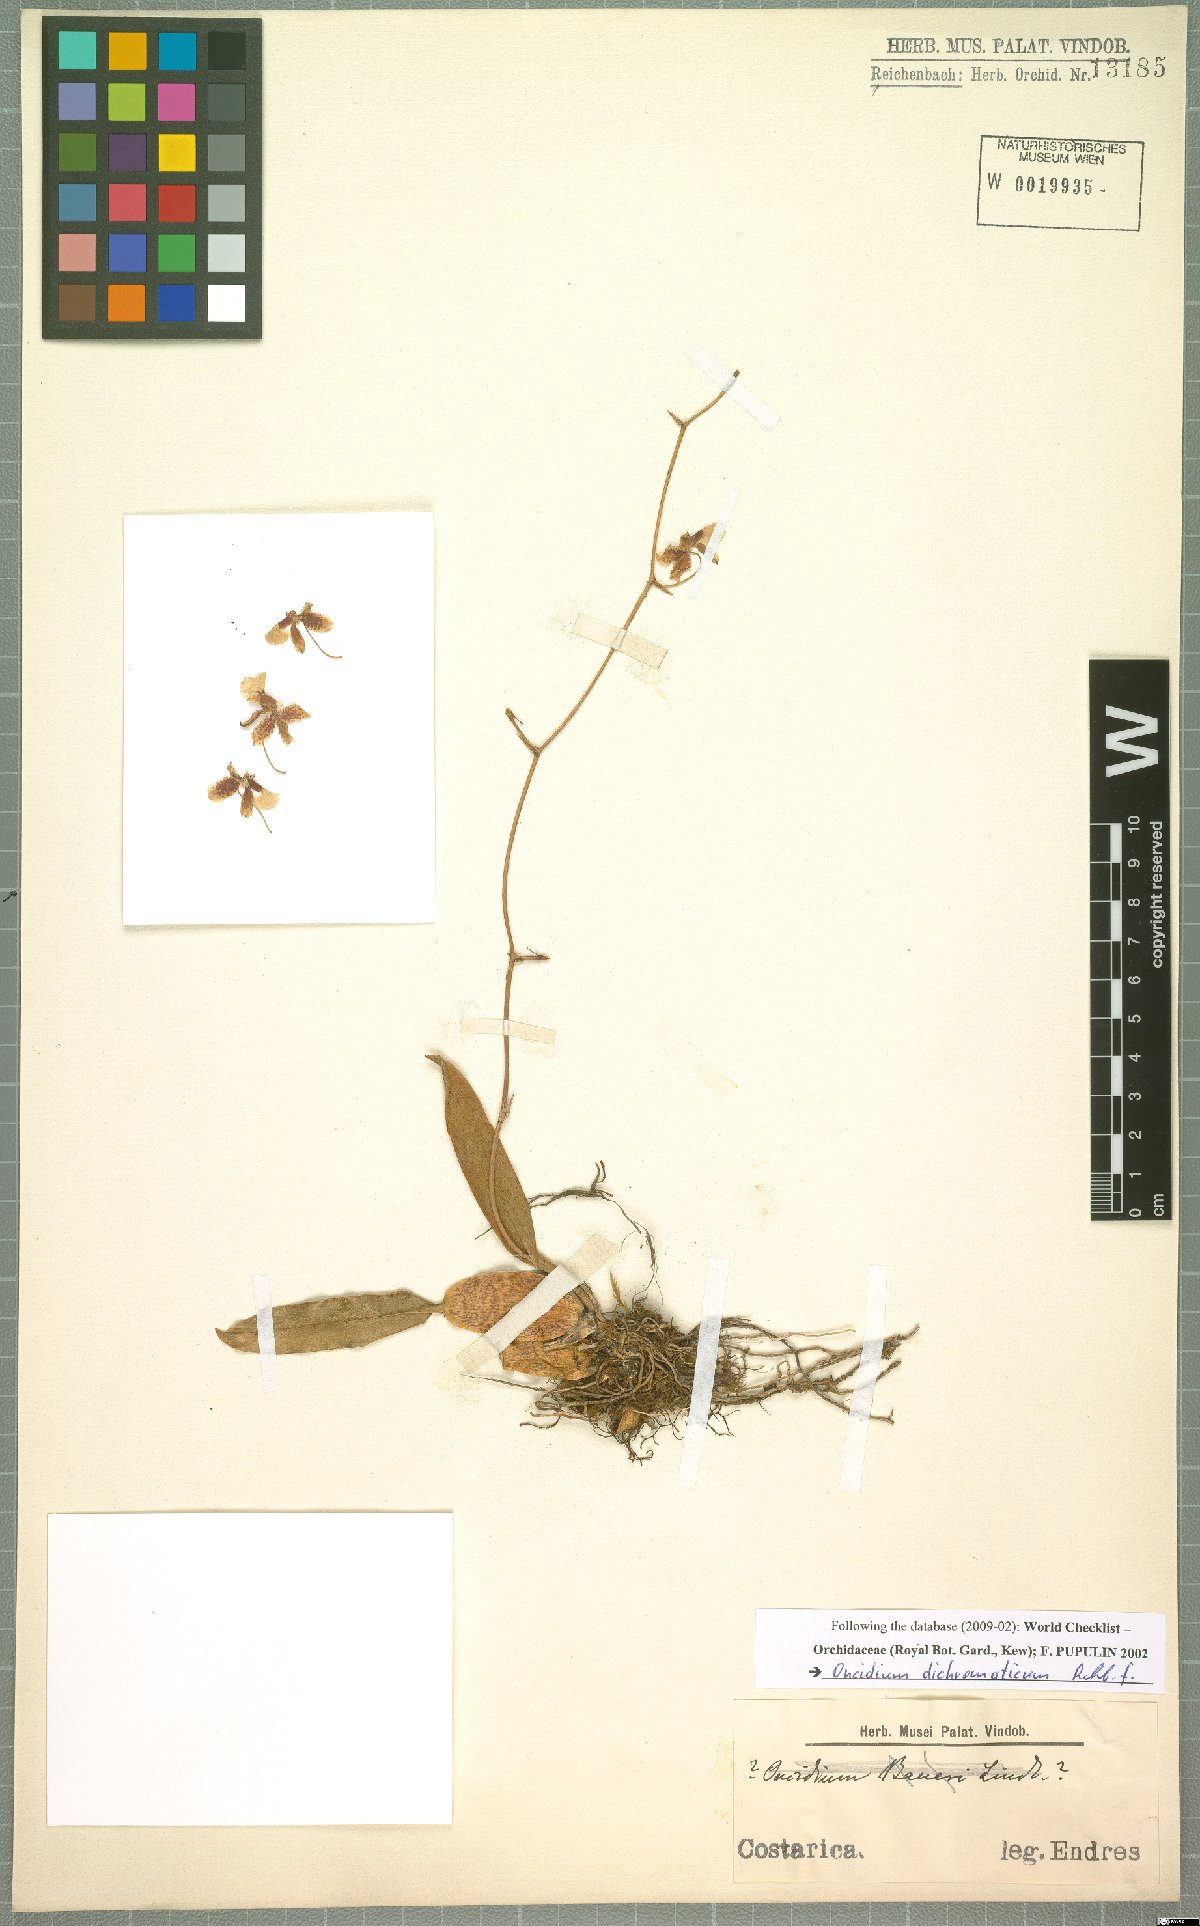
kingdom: Plantae
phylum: Tracheophyta
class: Liliopsida
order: Asparagales
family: Orchidaceae
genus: Oncidium
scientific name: Oncidium dichromaticum
